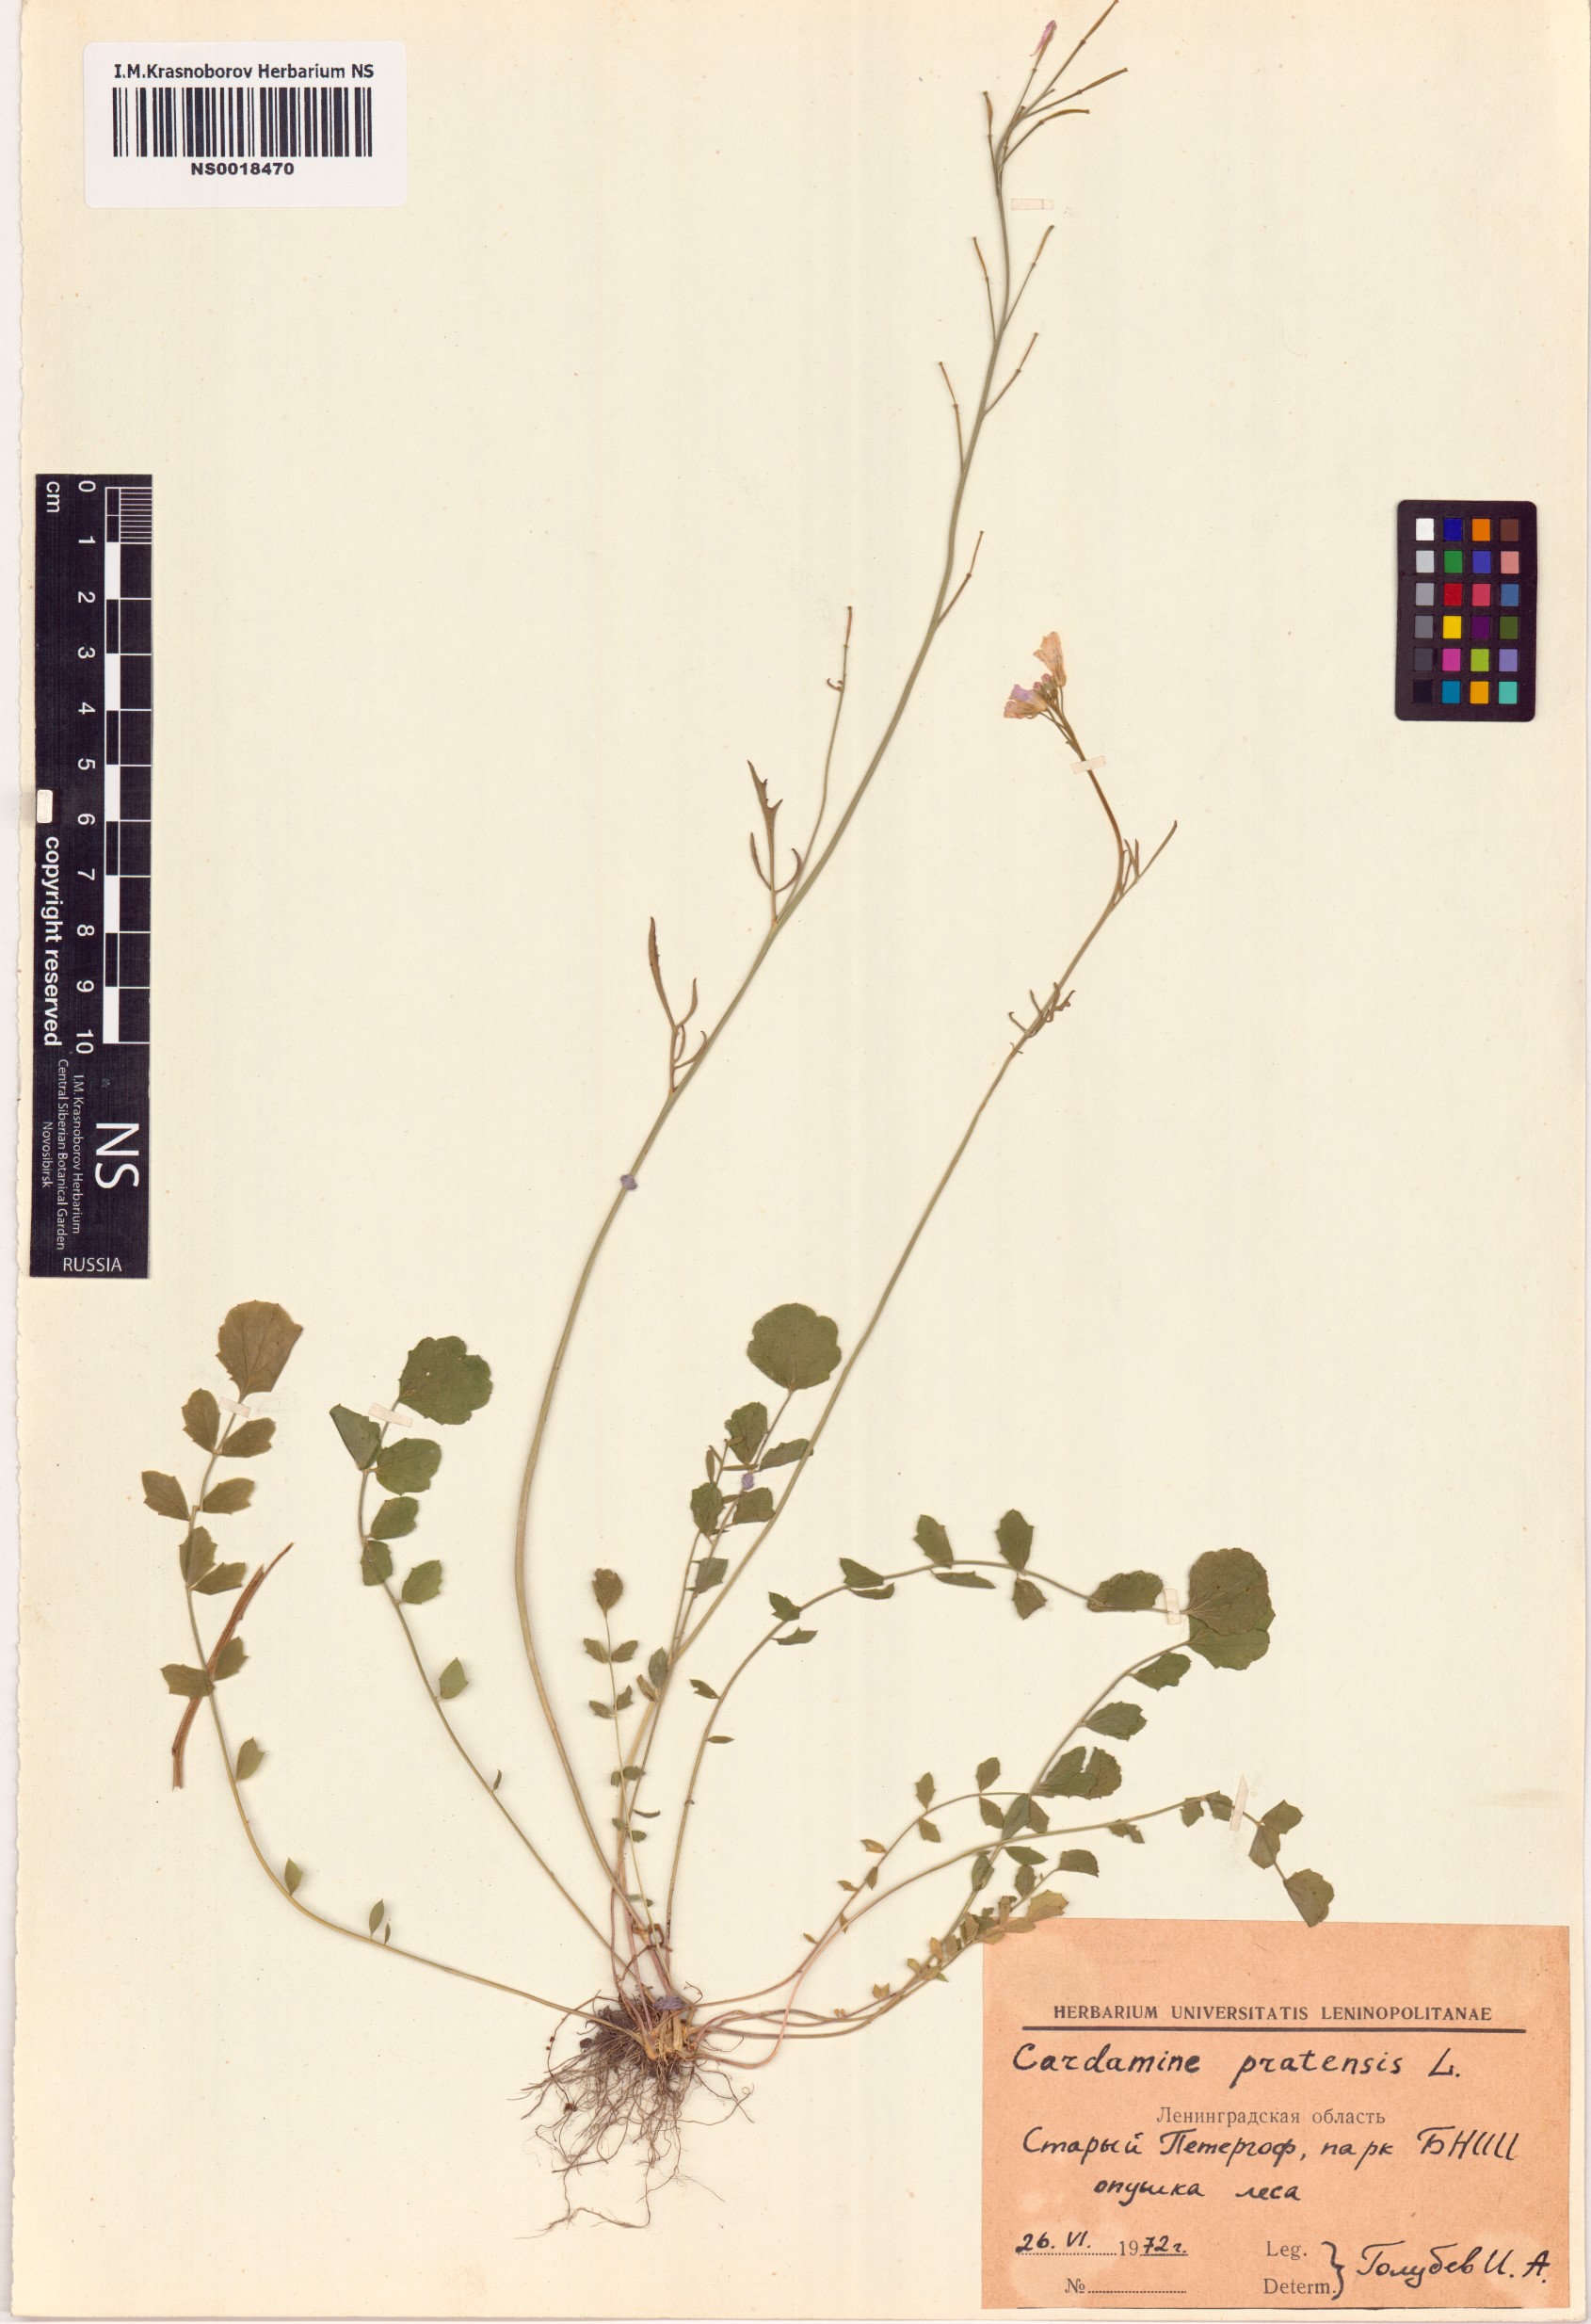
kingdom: Plantae
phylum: Tracheophyta
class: Magnoliopsida
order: Brassicales
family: Brassicaceae
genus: Cardamine
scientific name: Cardamine pratensis
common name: Cuckoo flower
